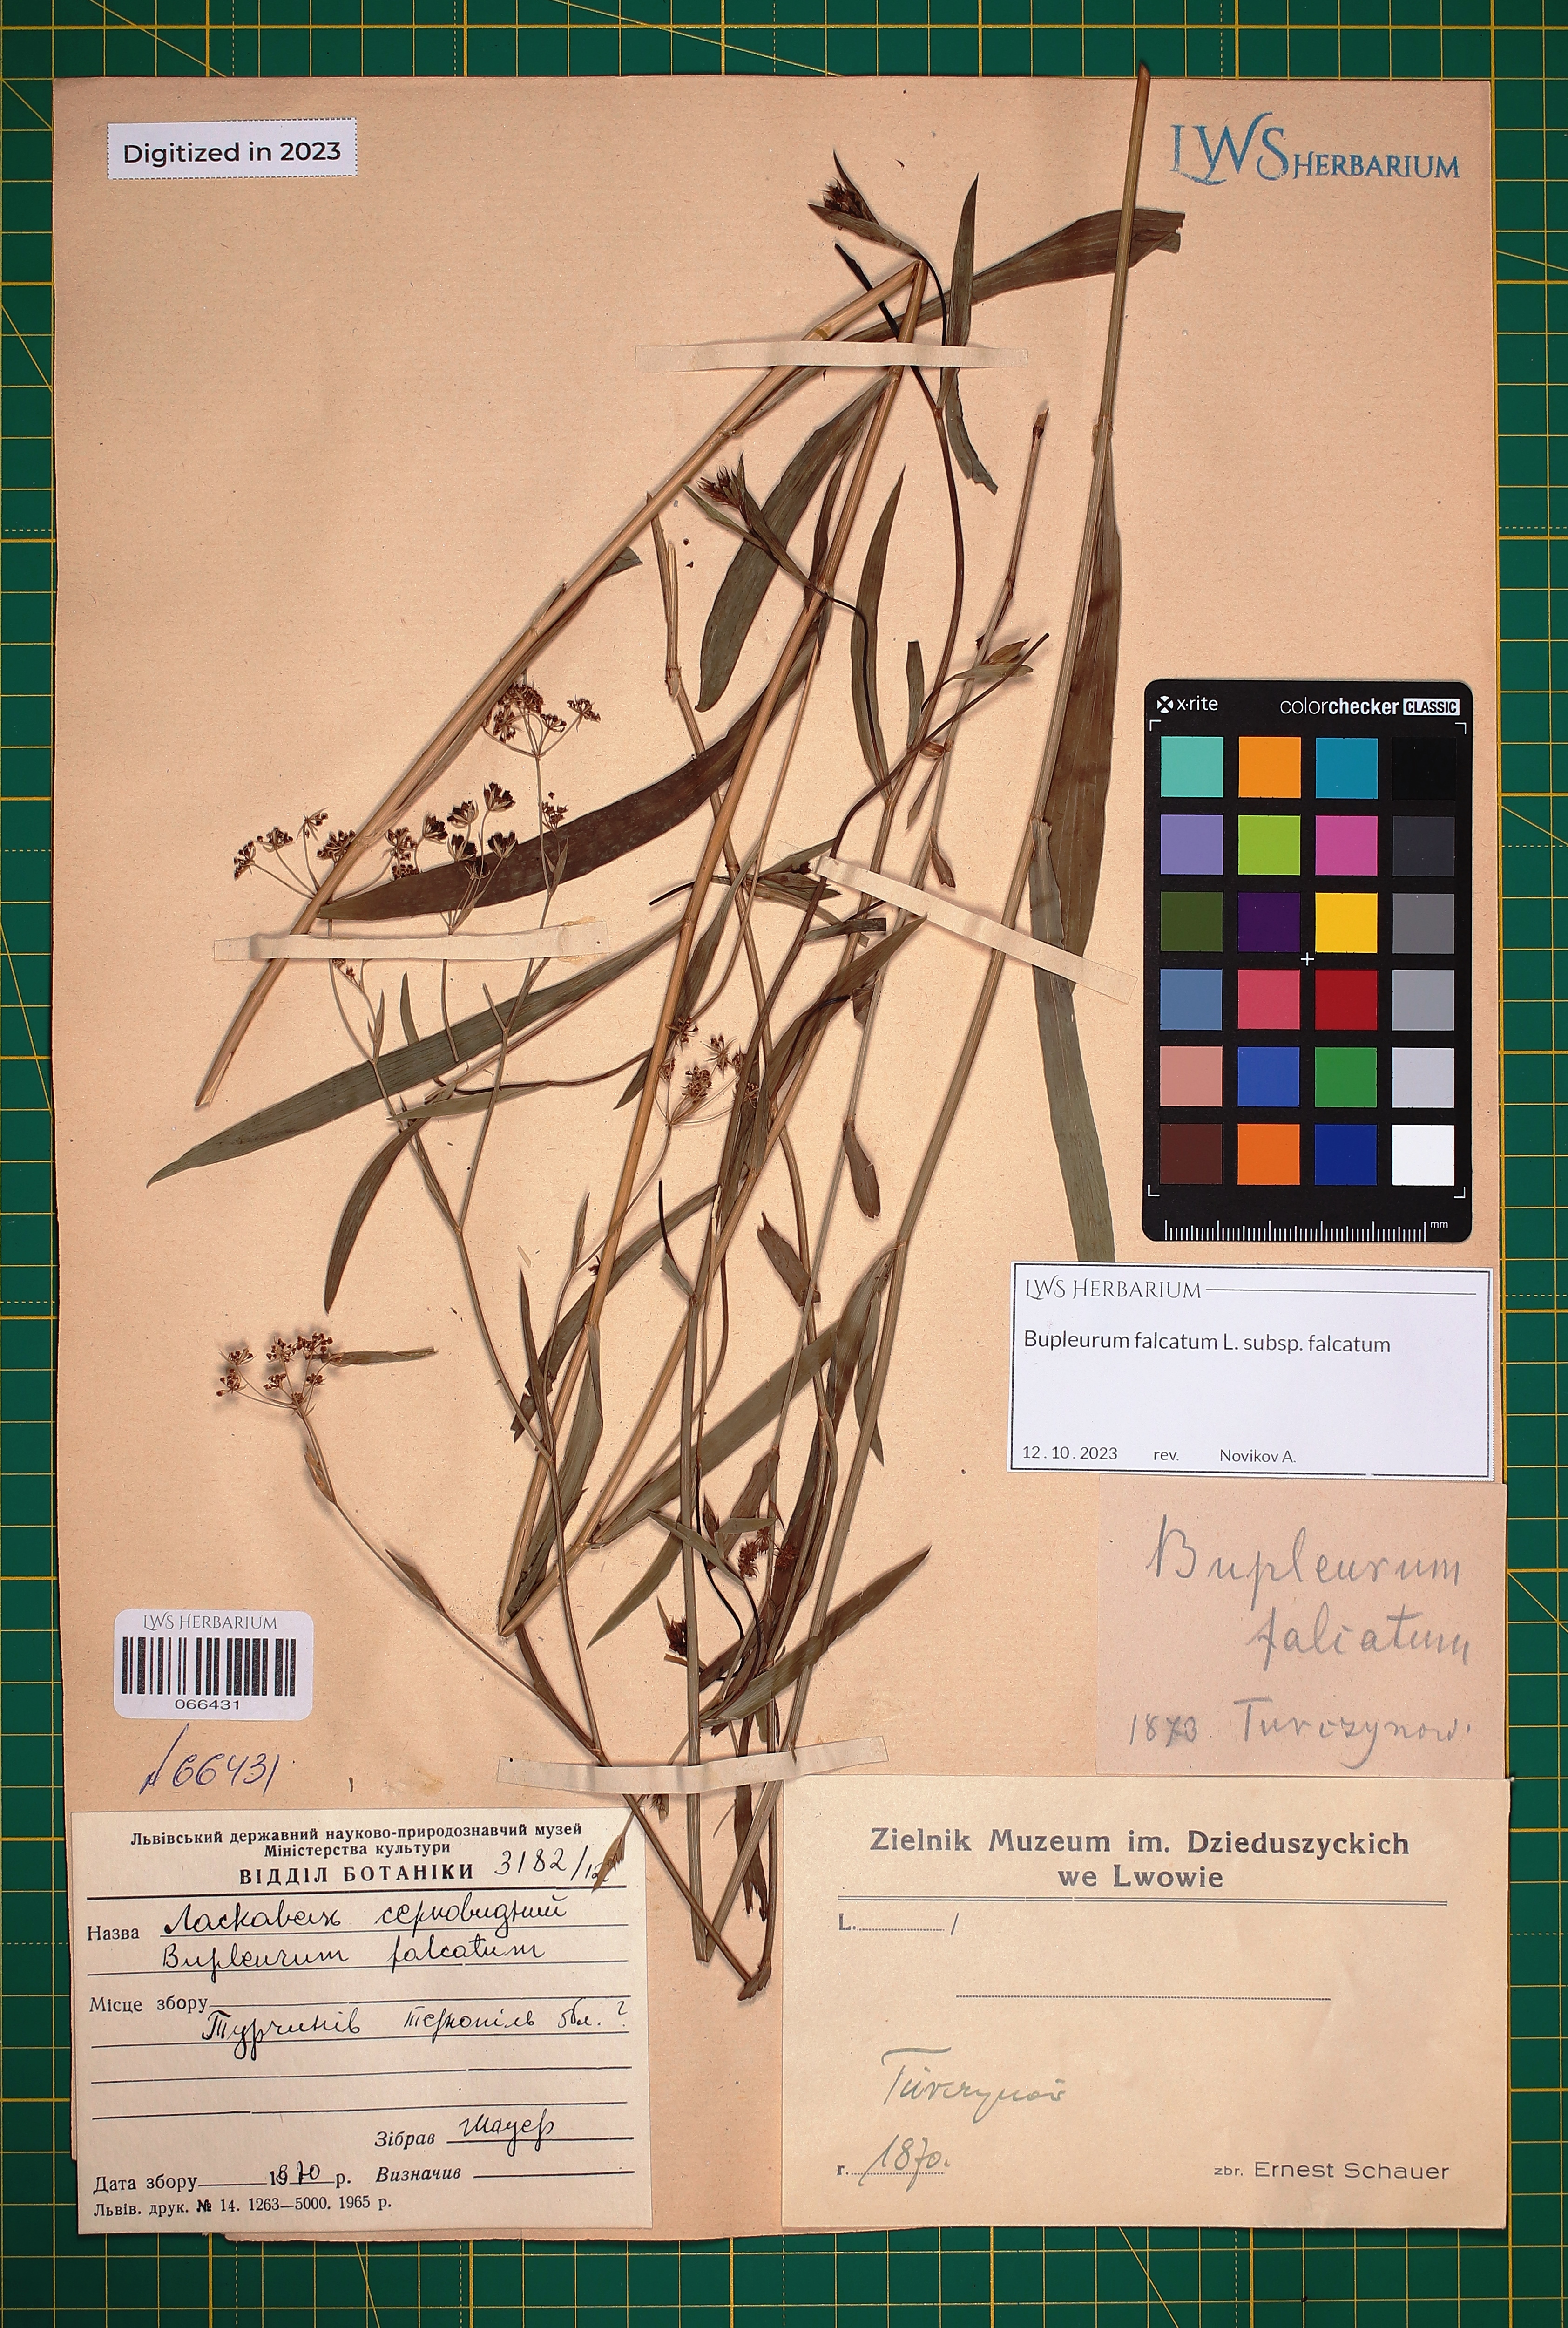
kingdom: Plantae
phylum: Tracheophyta
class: Magnoliopsida
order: Apiales
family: Apiaceae
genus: Bupleurum
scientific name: Bupleurum falcatum
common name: Sickle-leaved hare's-ear
